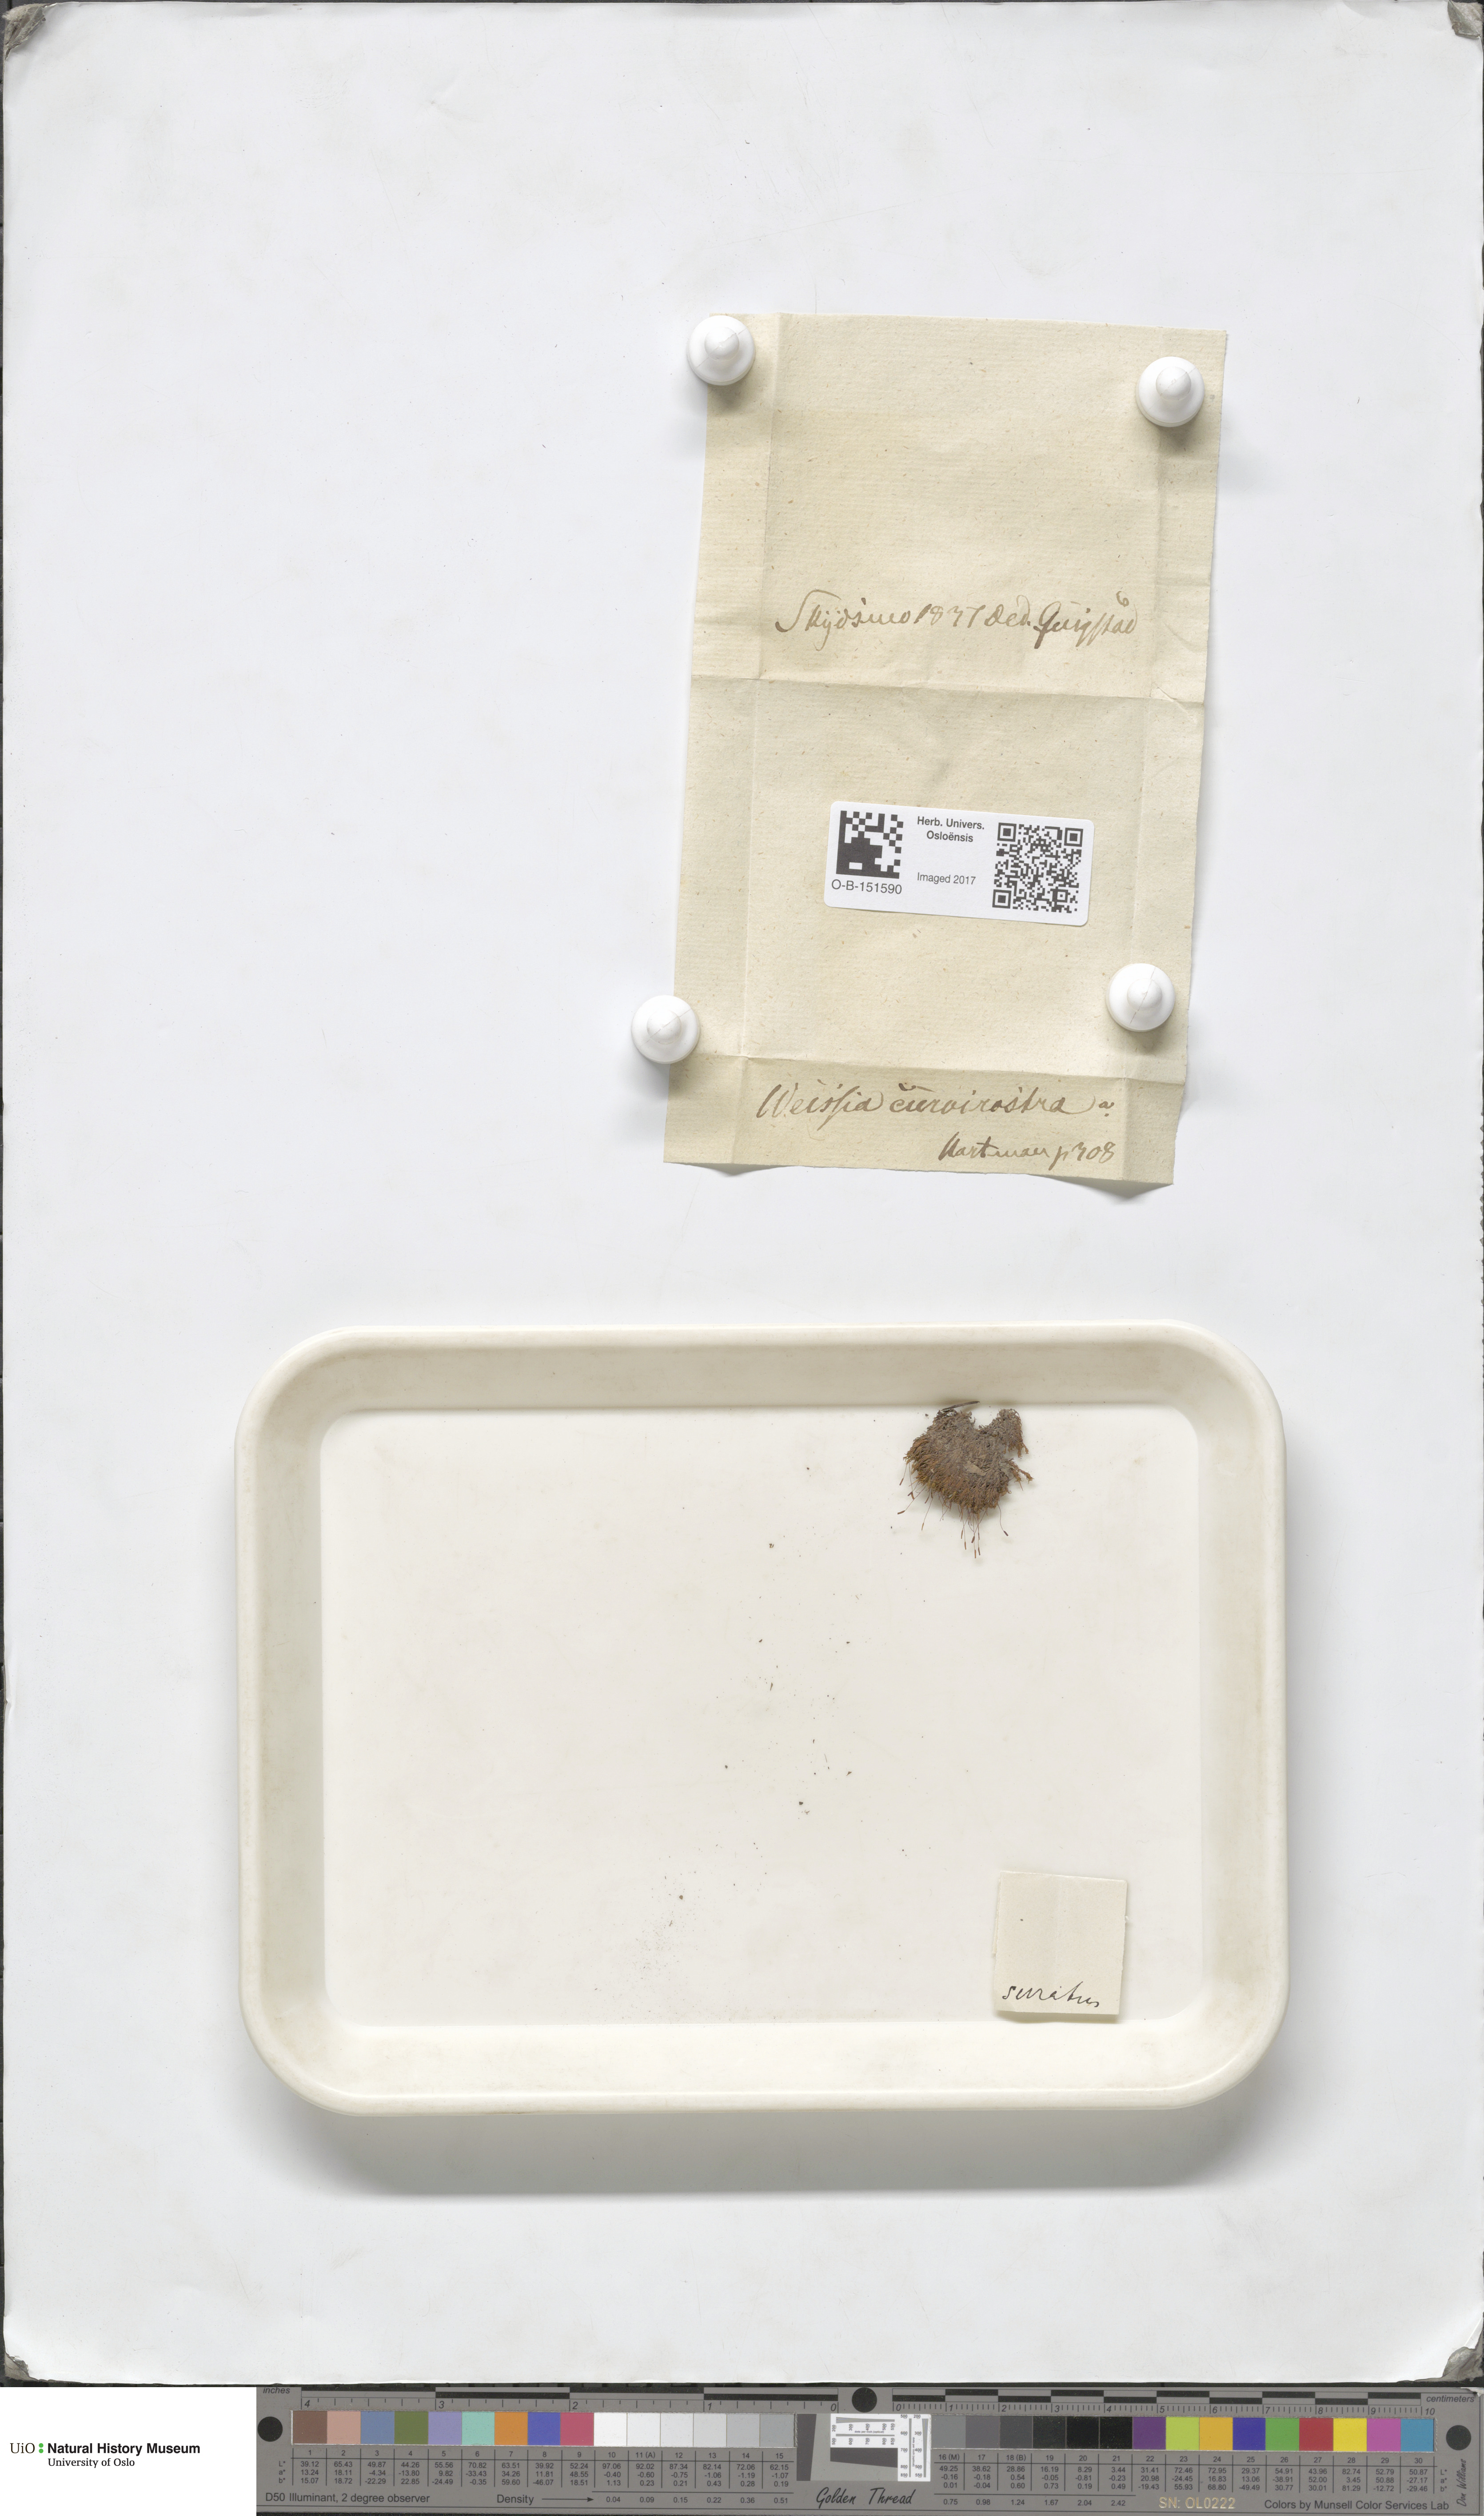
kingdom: Plantae
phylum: Bryophyta
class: Bryopsida
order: Pottiales
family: Pottiaceae
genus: Bryoerythrophyllum
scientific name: Bryoerythrophyllum recurvirostrum
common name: Red beard moss
